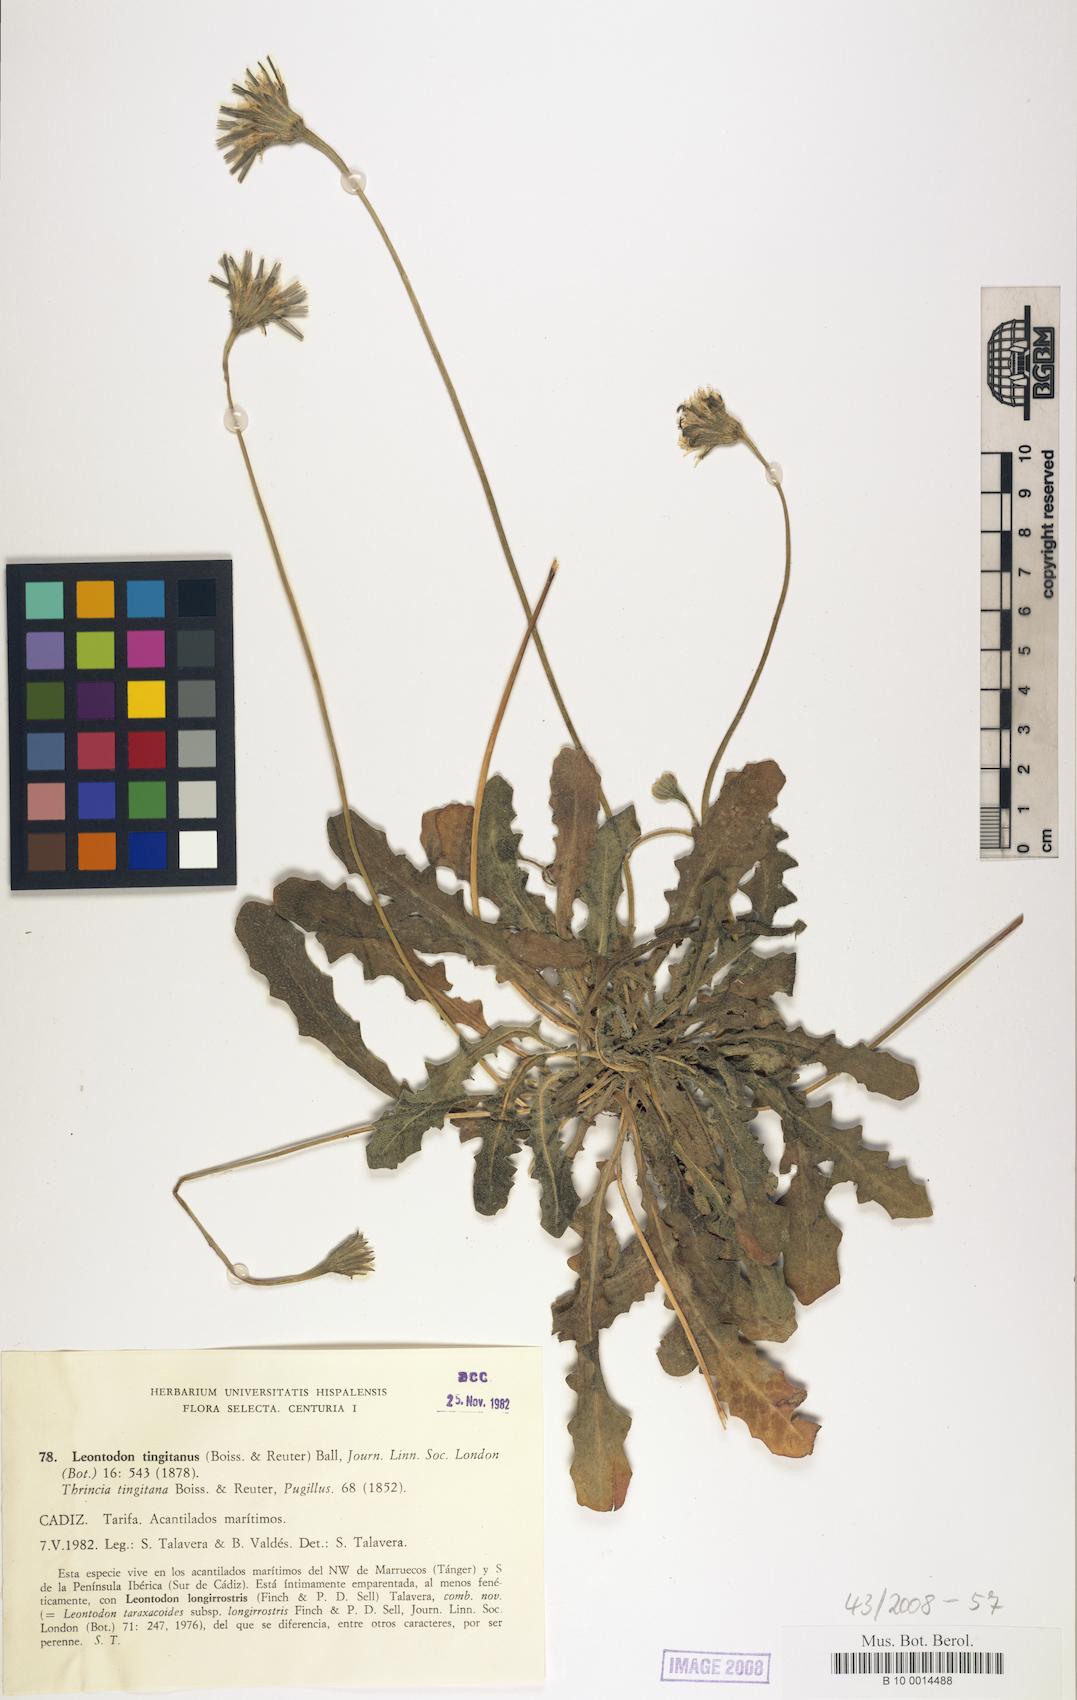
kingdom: Plantae
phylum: Tracheophyta
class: Magnoliopsida
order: Asterales
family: Asteraceae
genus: Thrincia
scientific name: Thrincia tingitana
